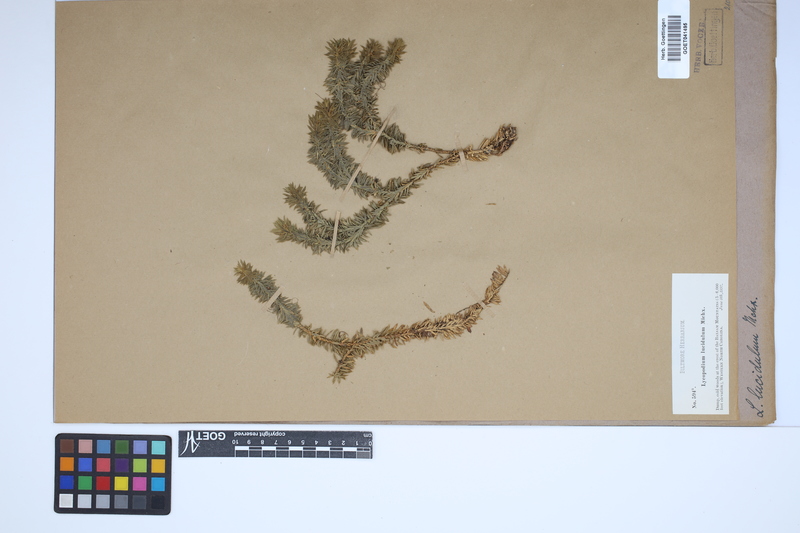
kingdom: Plantae
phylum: Tracheophyta
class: Lycopodiopsida
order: Lycopodiales
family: Lycopodiaceae
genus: Huperzia
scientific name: Huperzia lucidula
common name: Shining clubmoss
